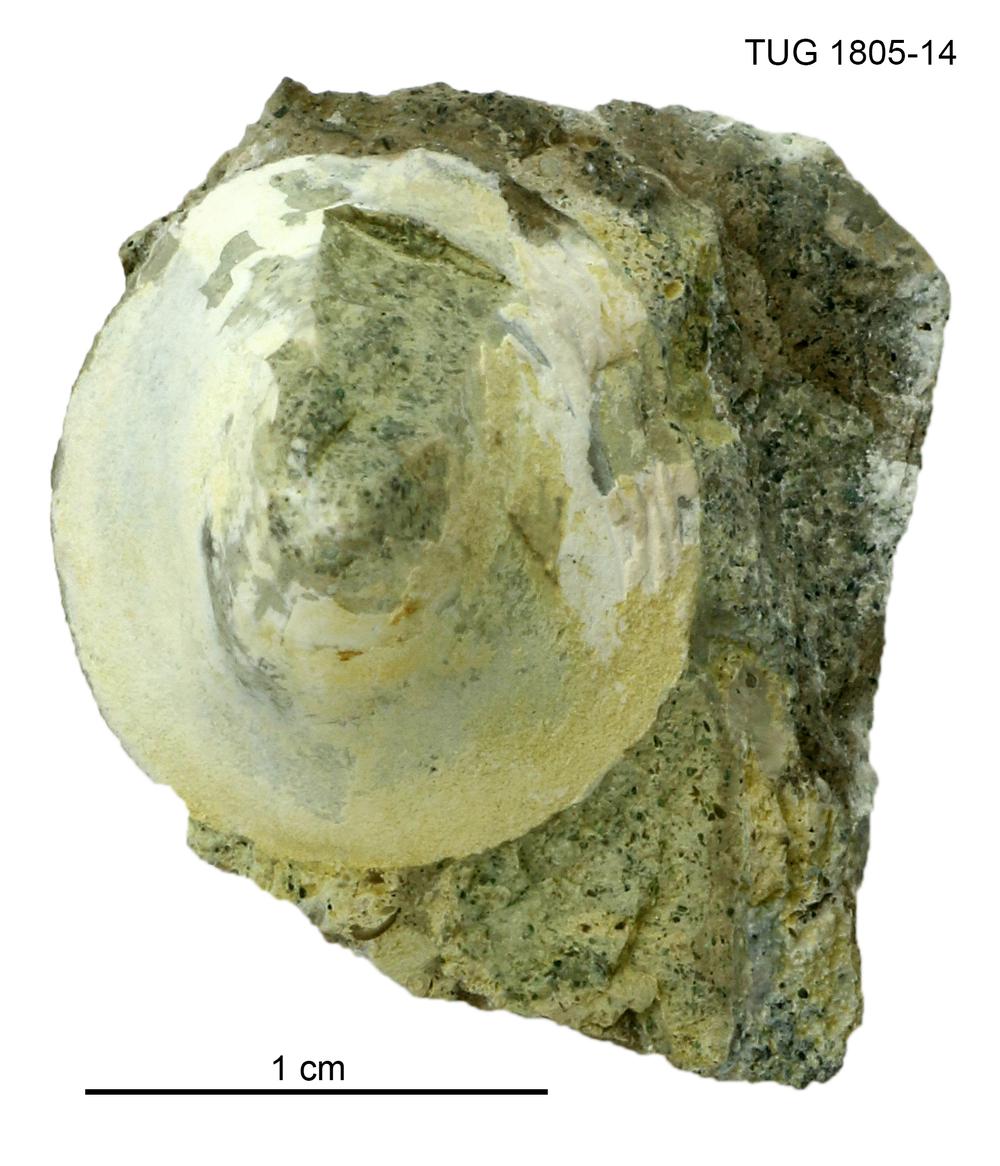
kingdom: Animalia
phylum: Mollusca
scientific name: Mollusca
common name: Mollusca
